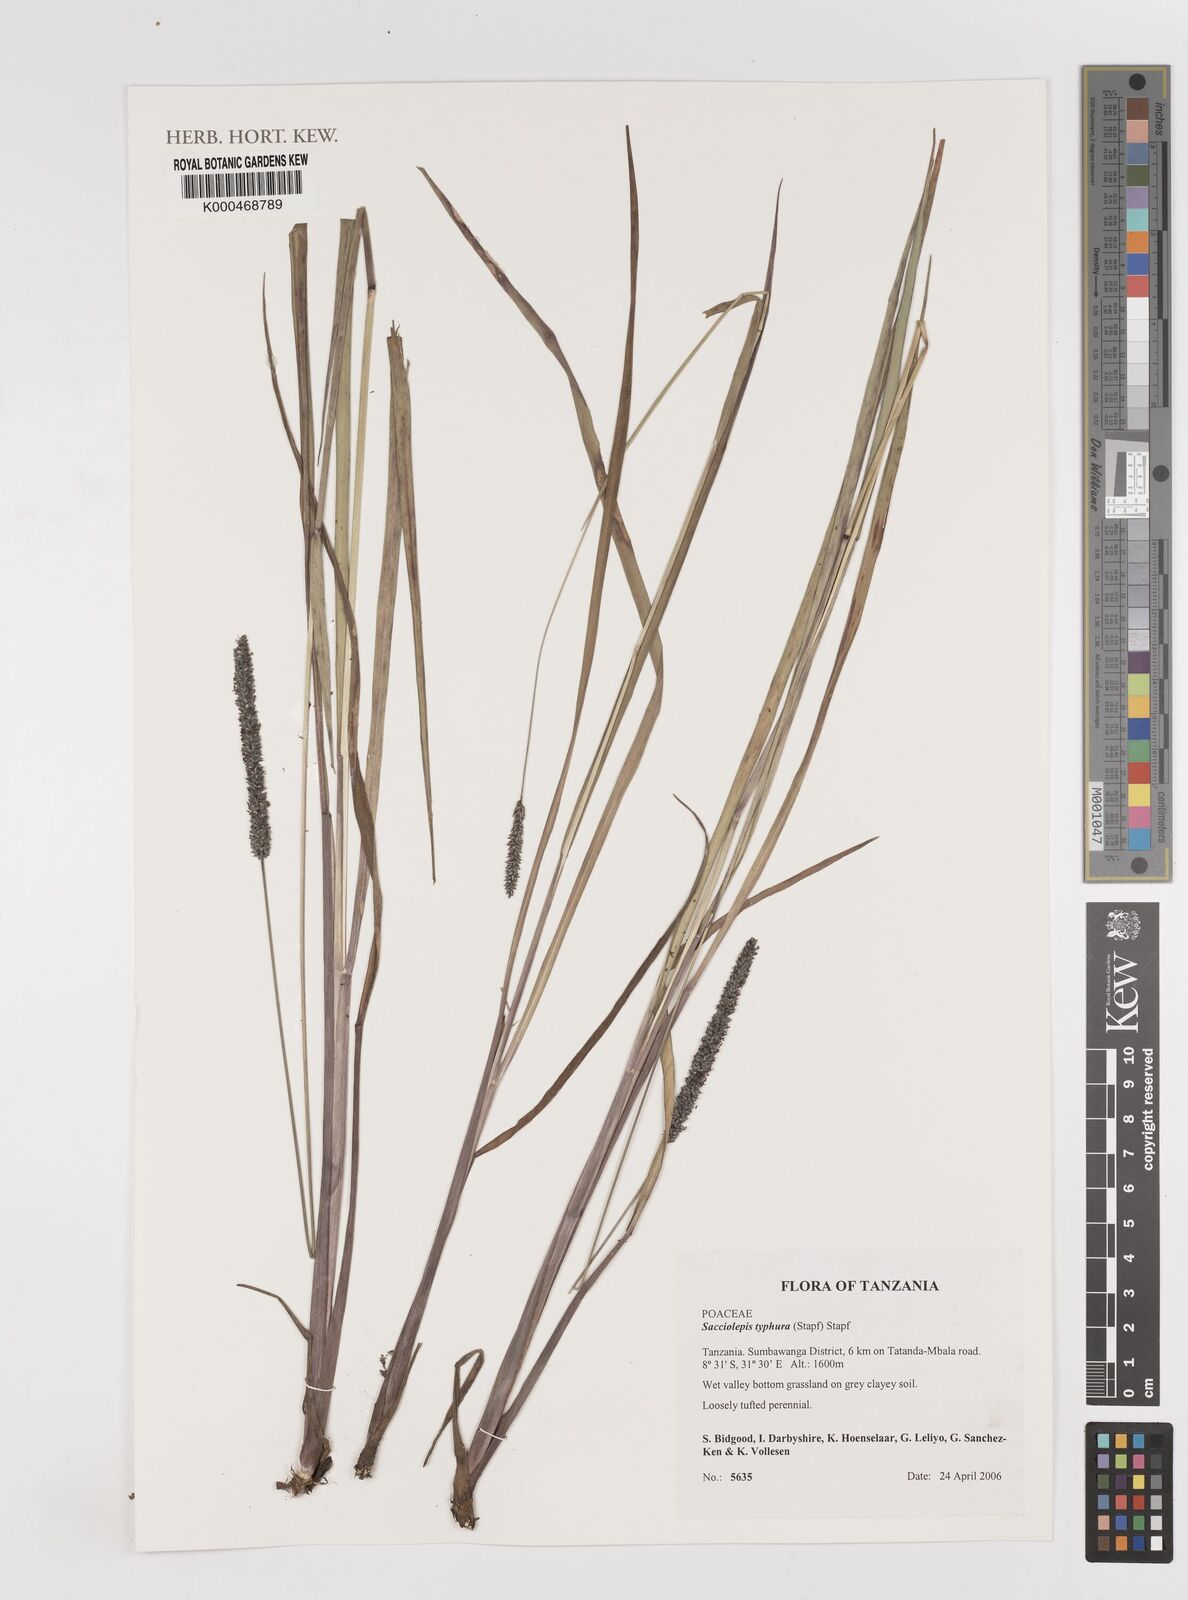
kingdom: Plantae
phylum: Tracheophyta
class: Liliopsida
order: Poales
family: Poaceae
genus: Sacciolepis
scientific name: Sacciolepis typhura
